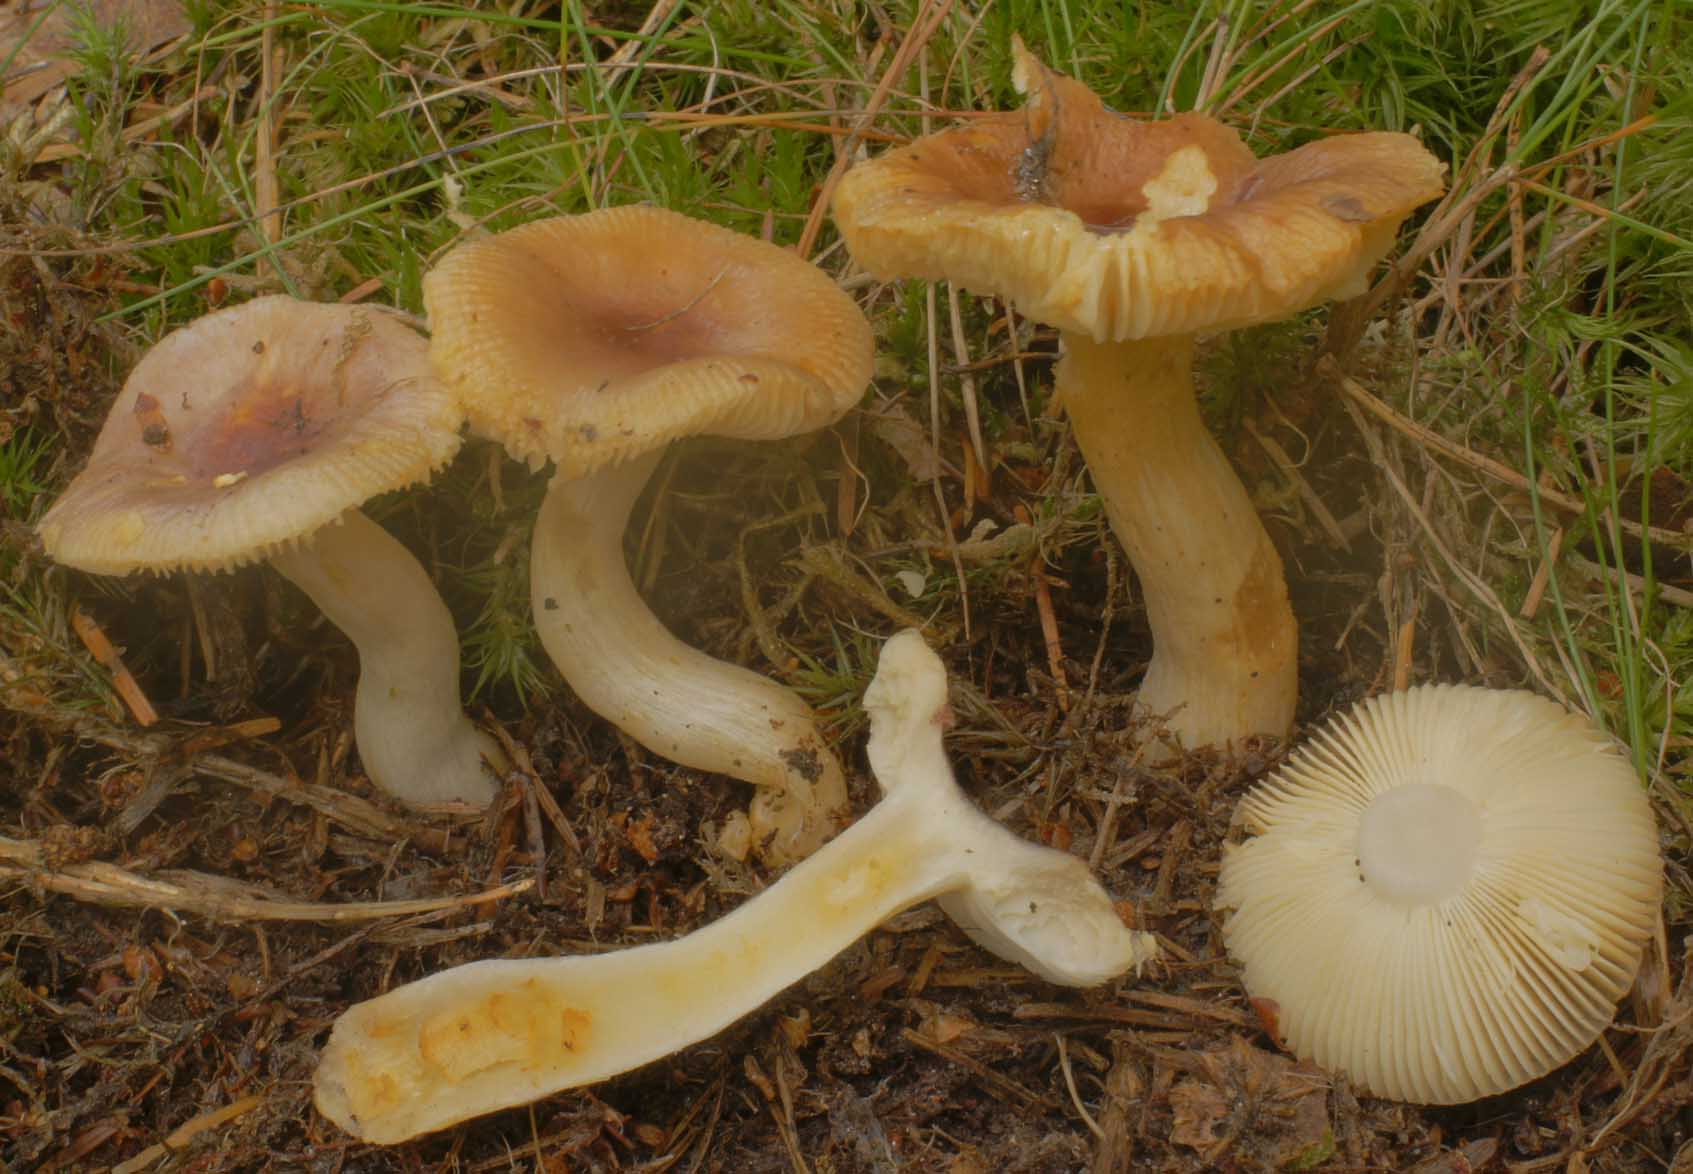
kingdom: Fungi
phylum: Basidiomycota
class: Agaricomycetes
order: Russulales
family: Russulaceae
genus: Russula
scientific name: Russula puellaris
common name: gulstokket skørhat
